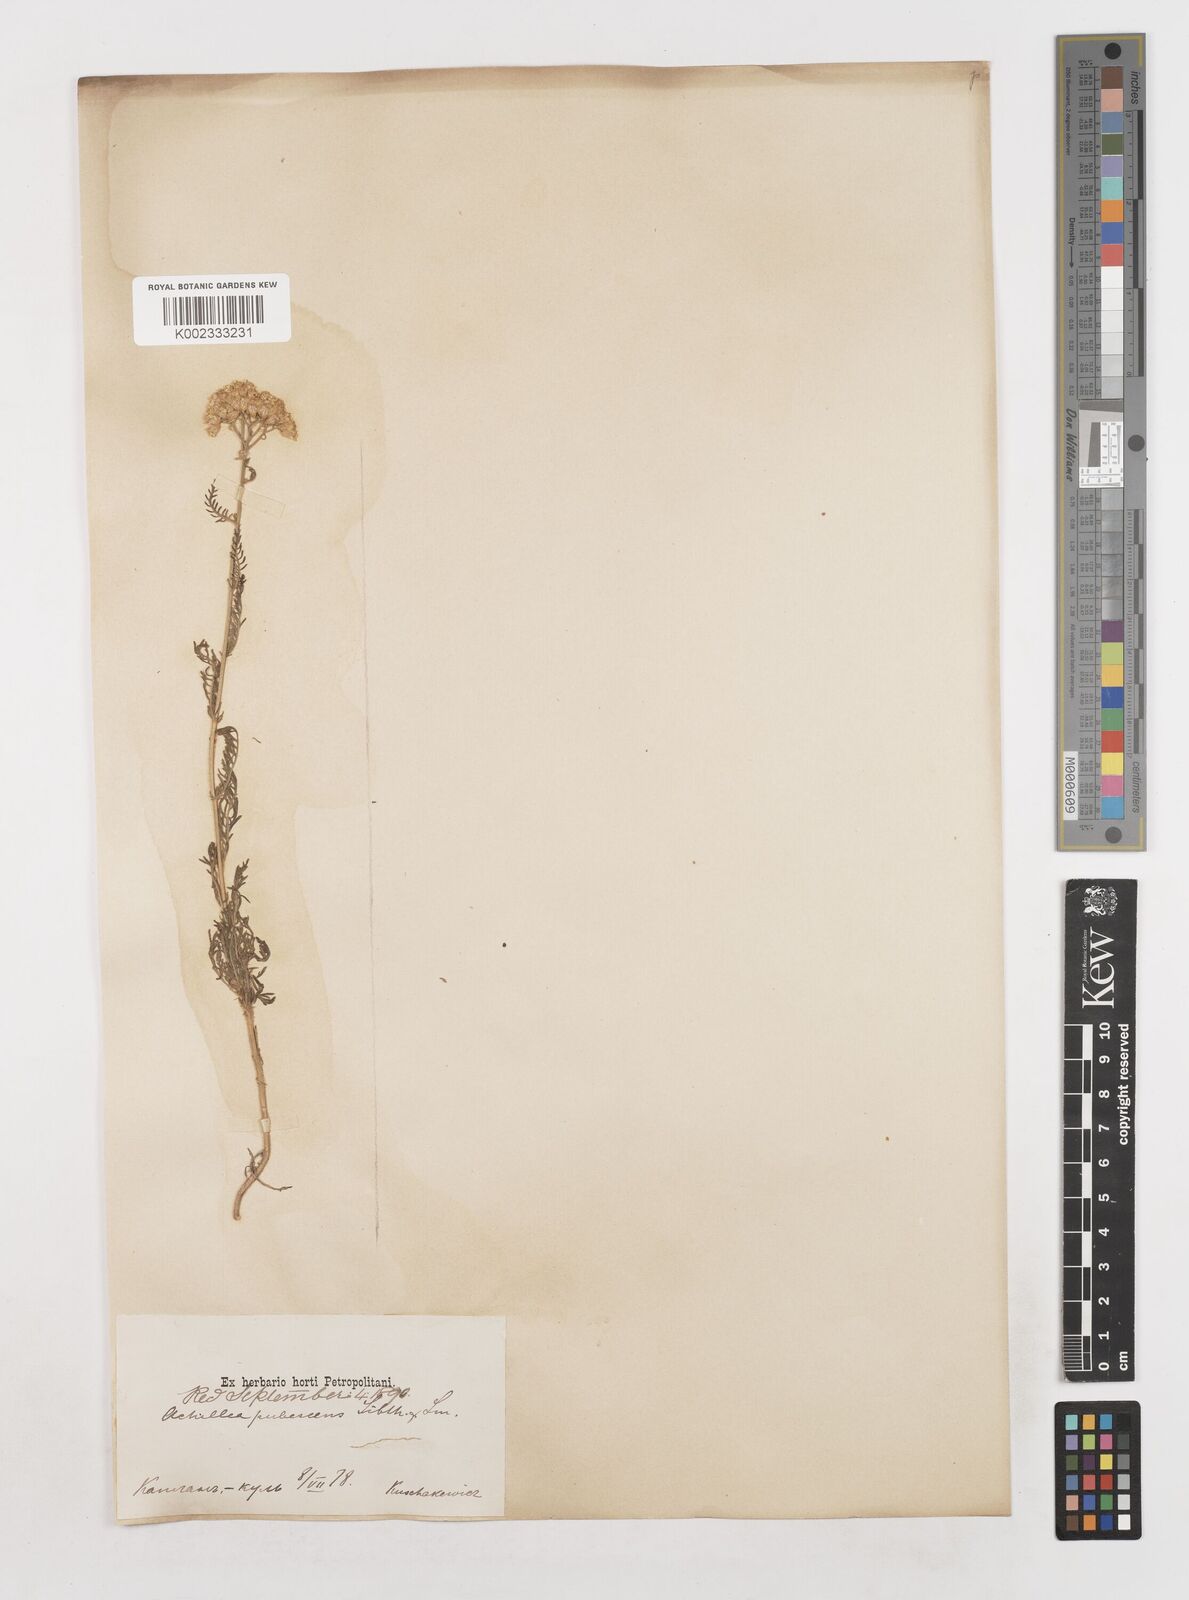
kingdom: Plantae
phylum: Tracheophyta
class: Magnoliopsida
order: Asterales
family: Asteraceae
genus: Achillea
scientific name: Achillea micrantha
